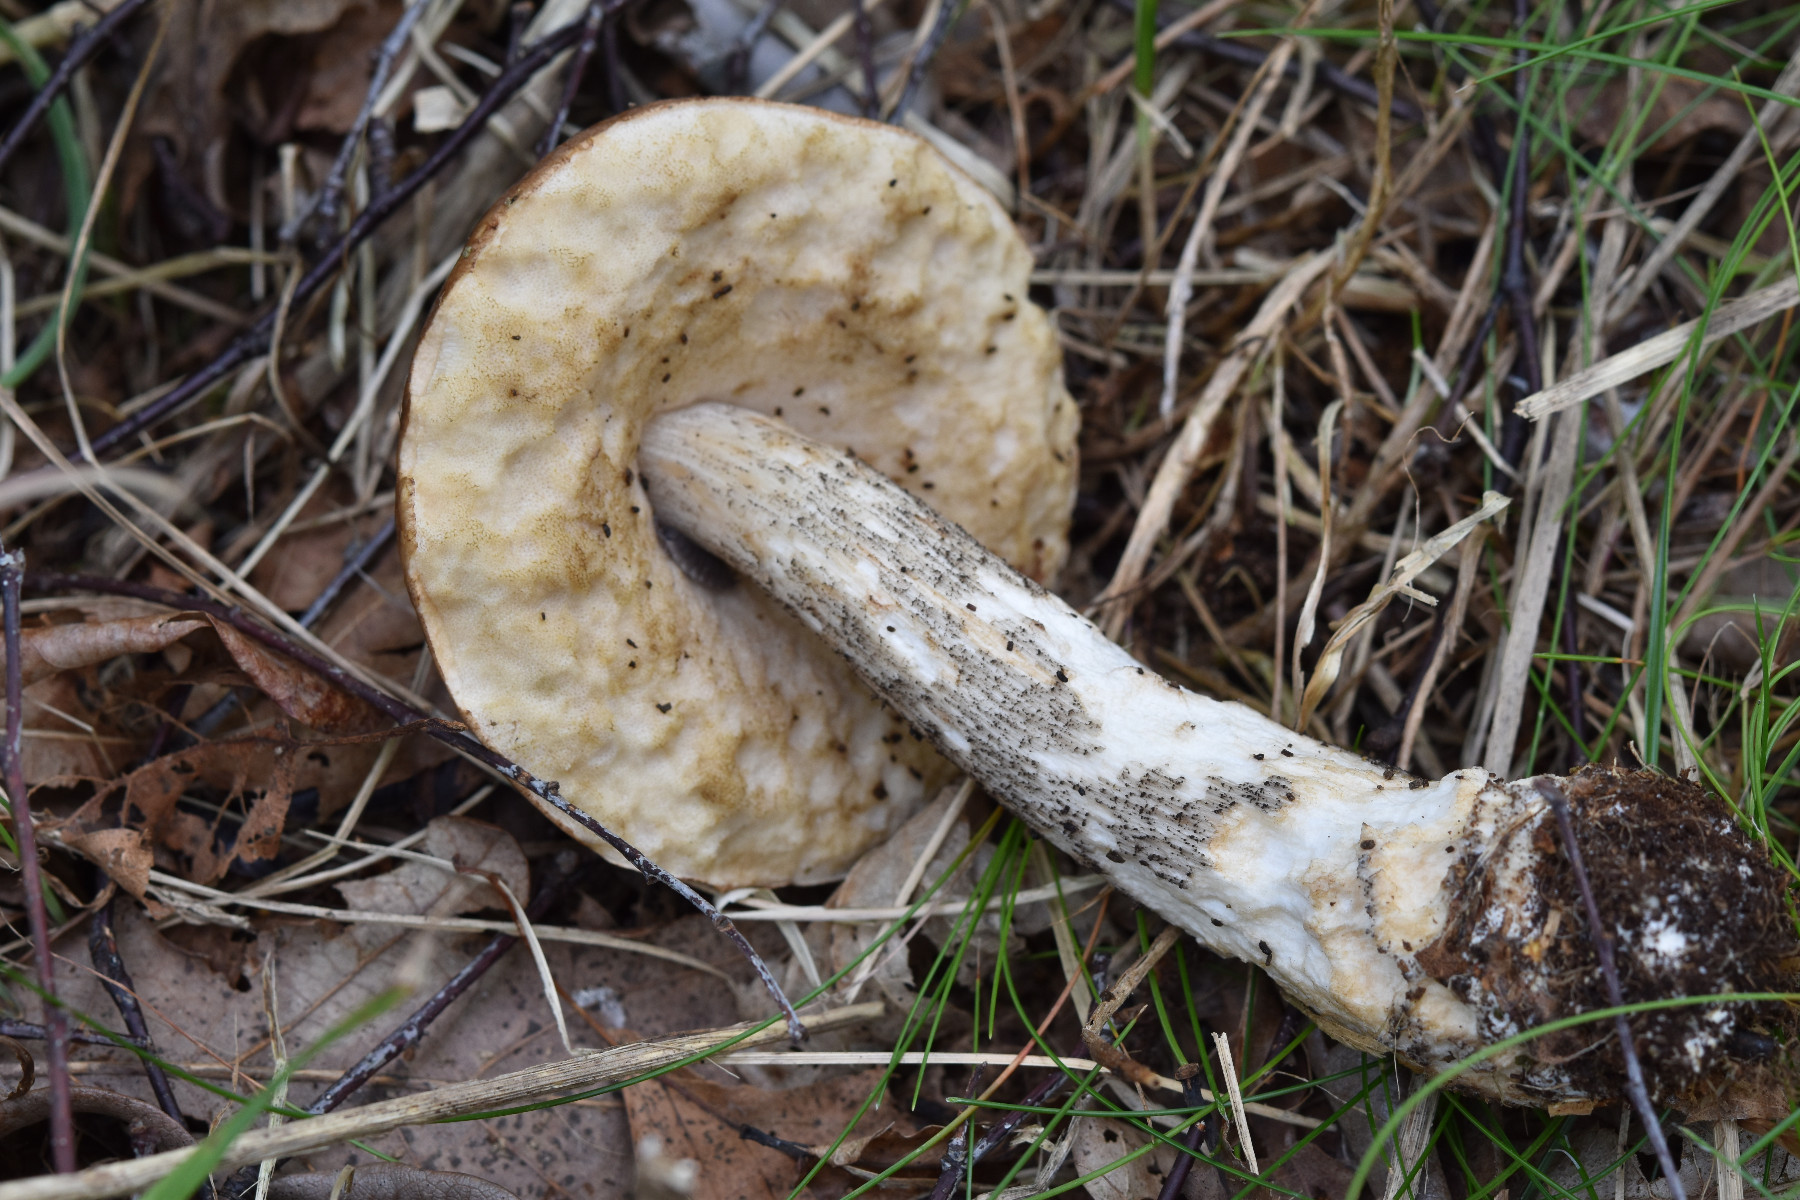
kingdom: Fungi
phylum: Basidiomycota
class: Agaricomycetes
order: Boletales
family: Boletaceae
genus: Leccinum
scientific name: Leccinum scabrum
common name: brun skælrørhat
